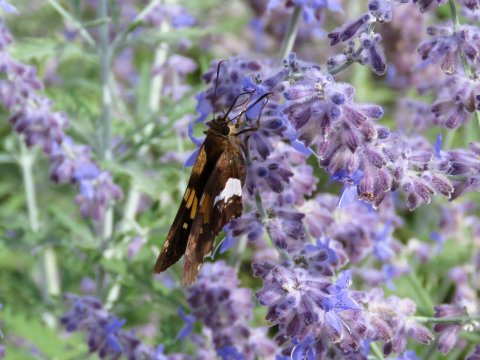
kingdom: Animalia
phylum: Arthropoda
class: Insecta
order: Lepidoptera
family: Hesperiidae
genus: Epargyreus
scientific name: Epargyreus clarus
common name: Silver-spotted Skipper
